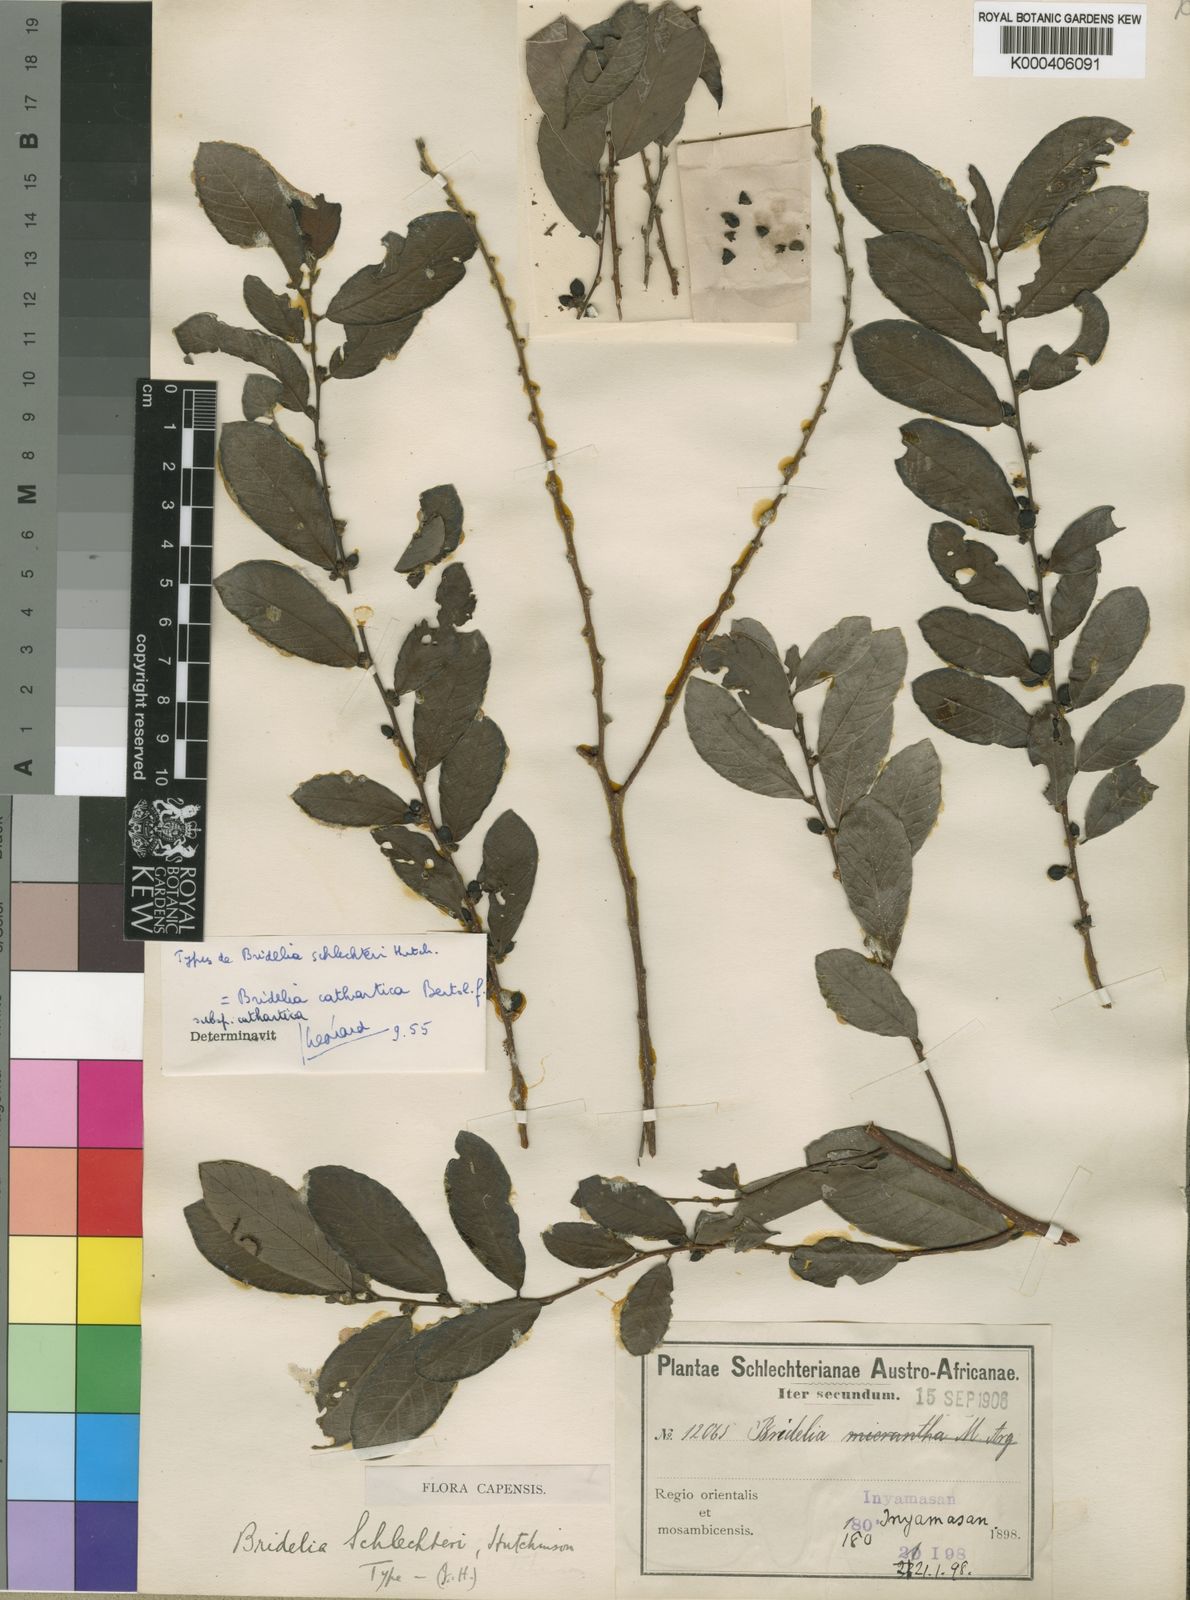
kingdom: Plantae
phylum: Tracheophyta
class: Magnoliopsida
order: Malpighiales
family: Phyllanthaceae
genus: Bridelia
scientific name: Bridelia cathartica
